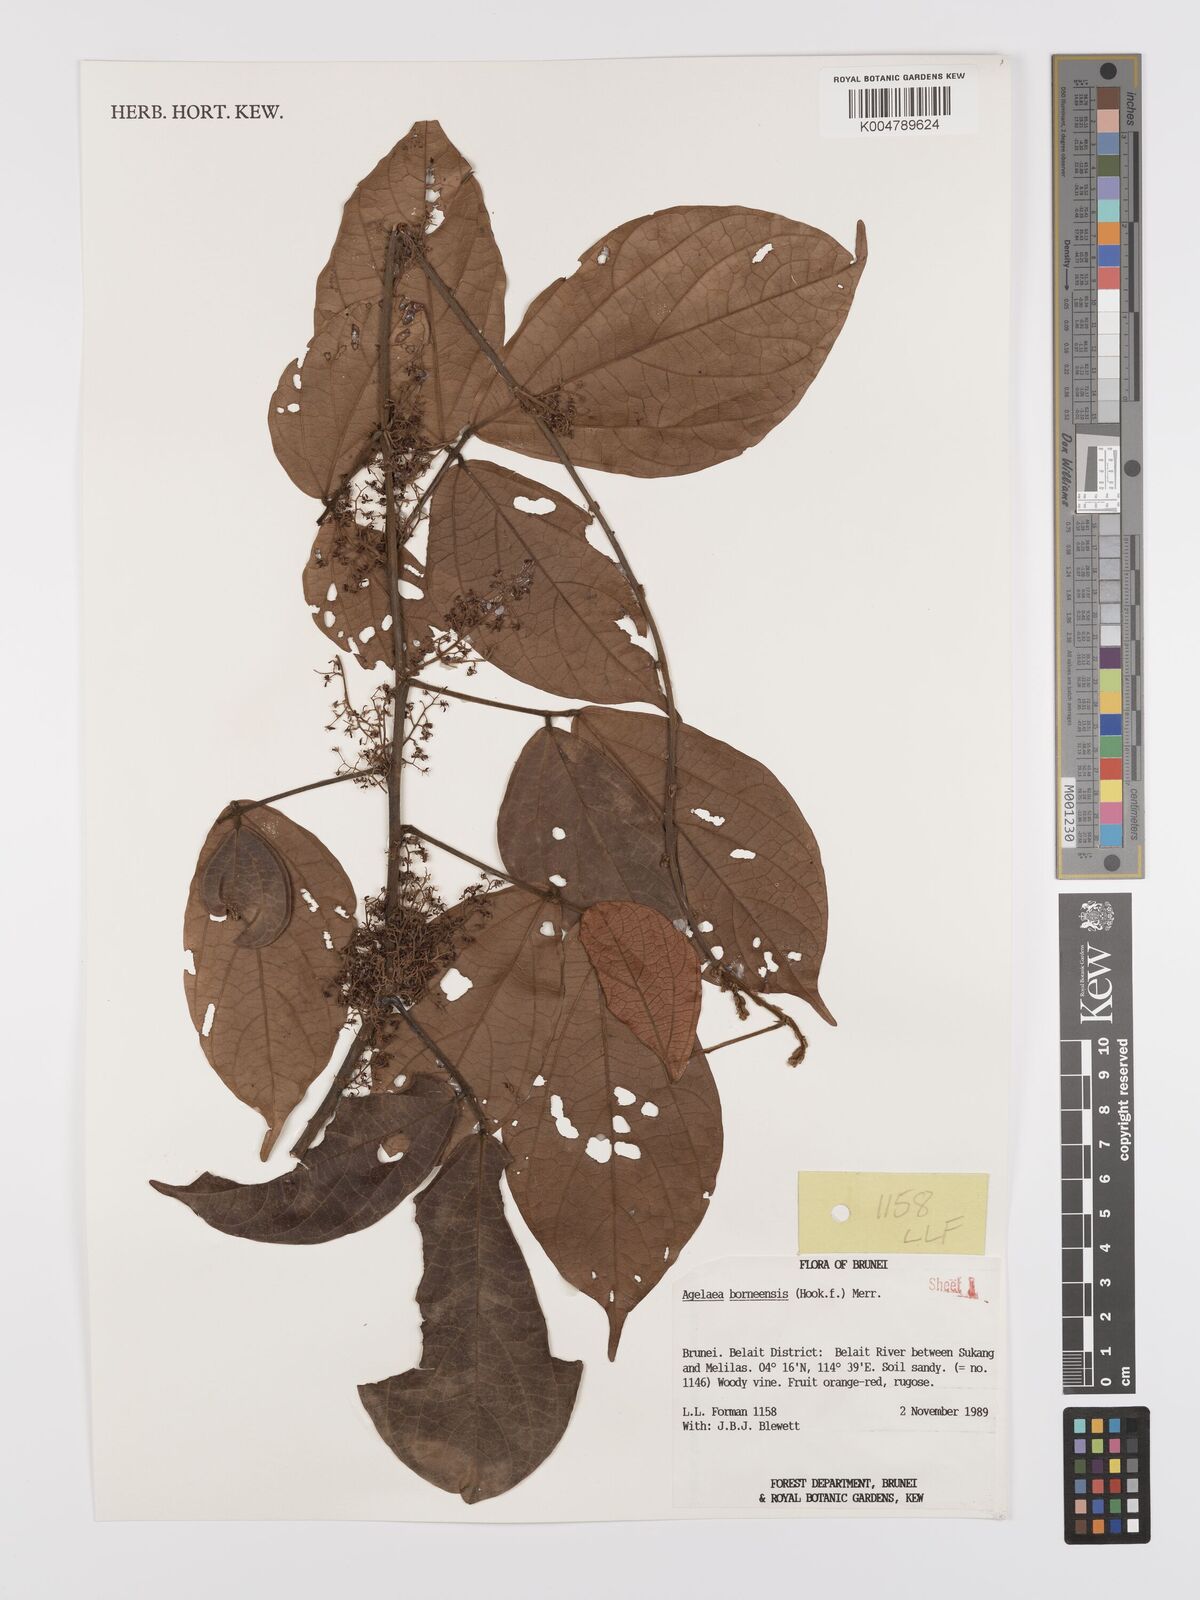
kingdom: Plantae
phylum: Tracheophyta
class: Magnoliopsida
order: Oxalidales
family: Connaraceae
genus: Agelaea
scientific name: Agelaea borneensis
